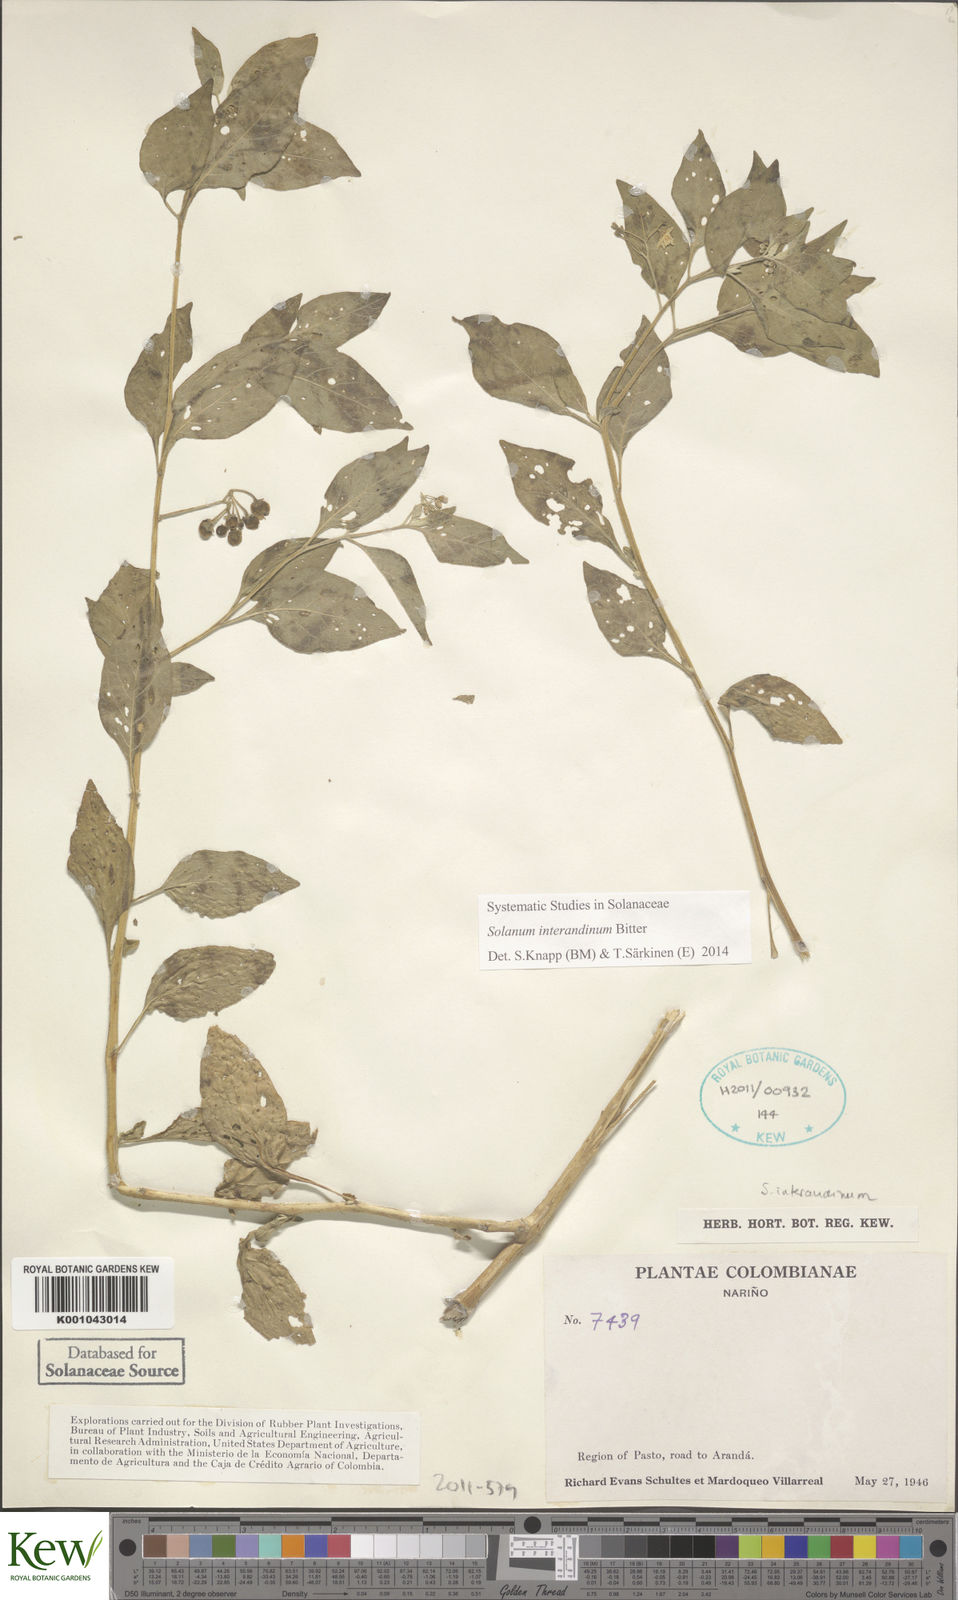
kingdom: Plantae
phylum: Tracheophyta
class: Magnoliopsida
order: Solanales
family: Solanaceae
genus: Solanum
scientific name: Solanum interandinum
